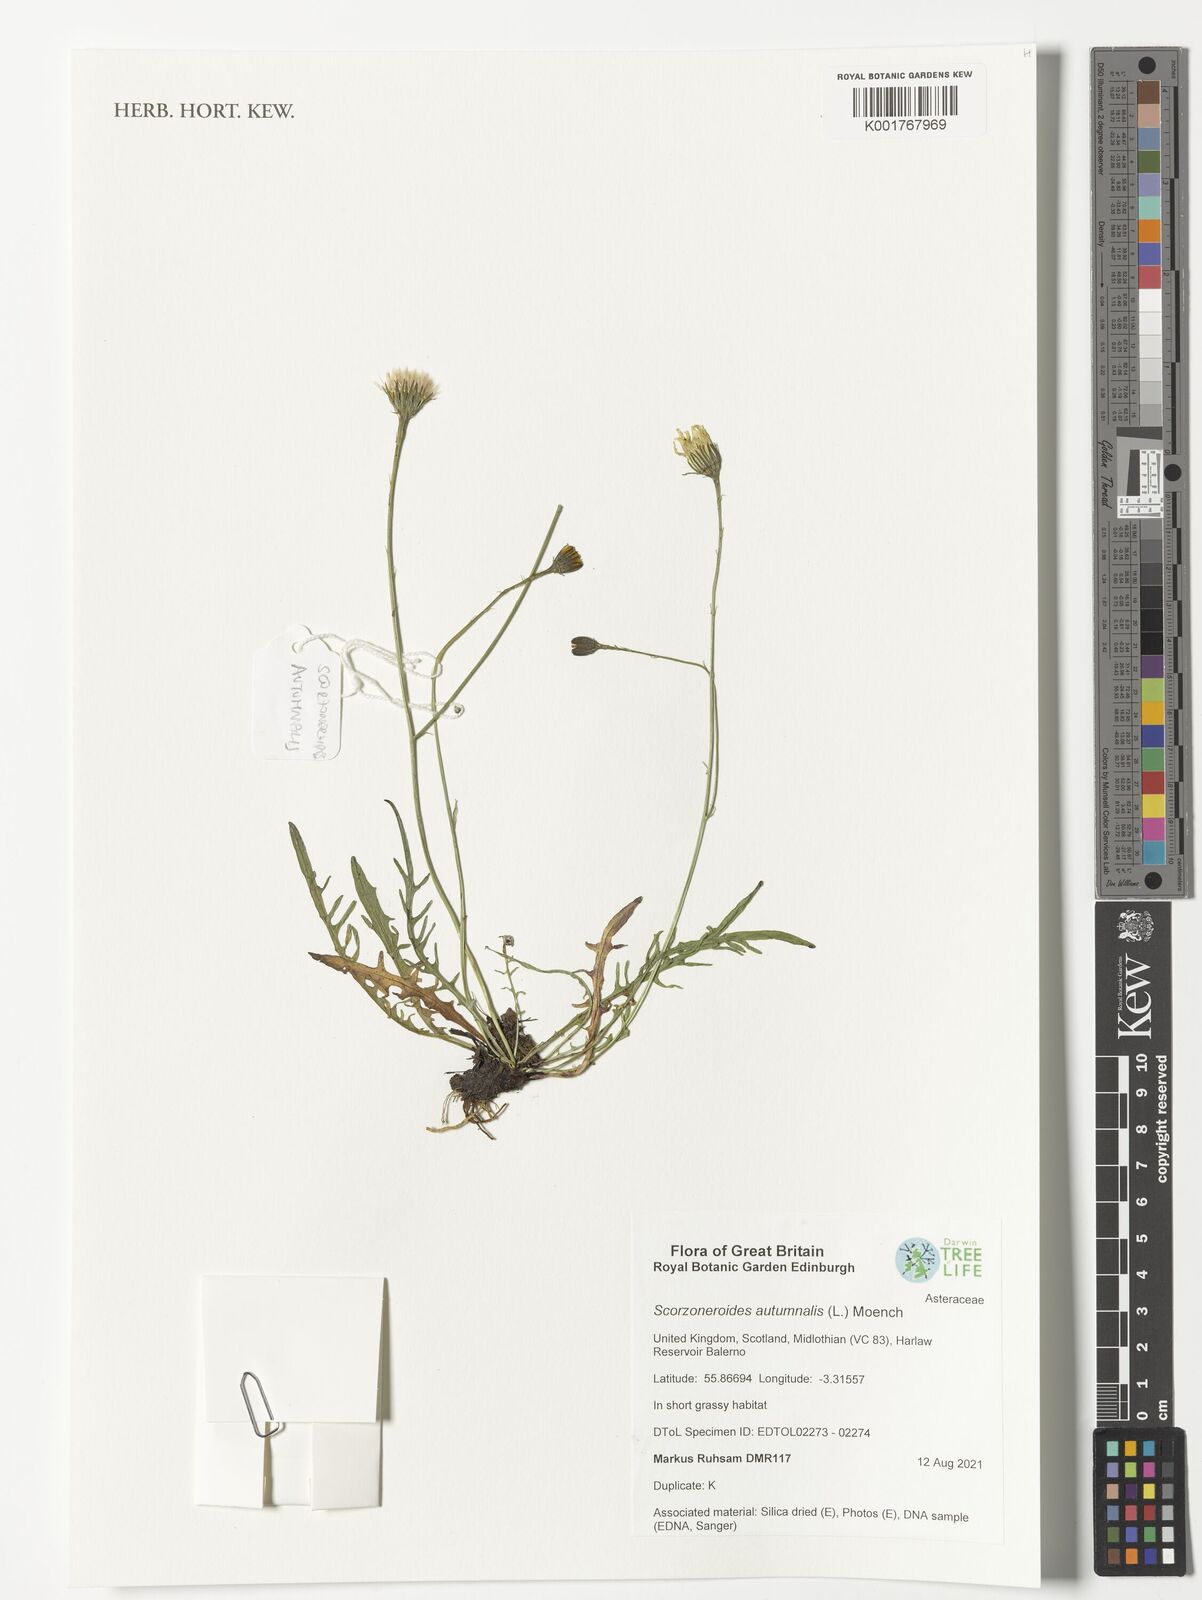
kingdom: Plantae
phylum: Tracheophyta
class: Magnoliopsida
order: Asterales
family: Asteraceae
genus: Scorzoneroides
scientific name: Scorzoneroides autumnalis
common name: Autumn hawkbit
